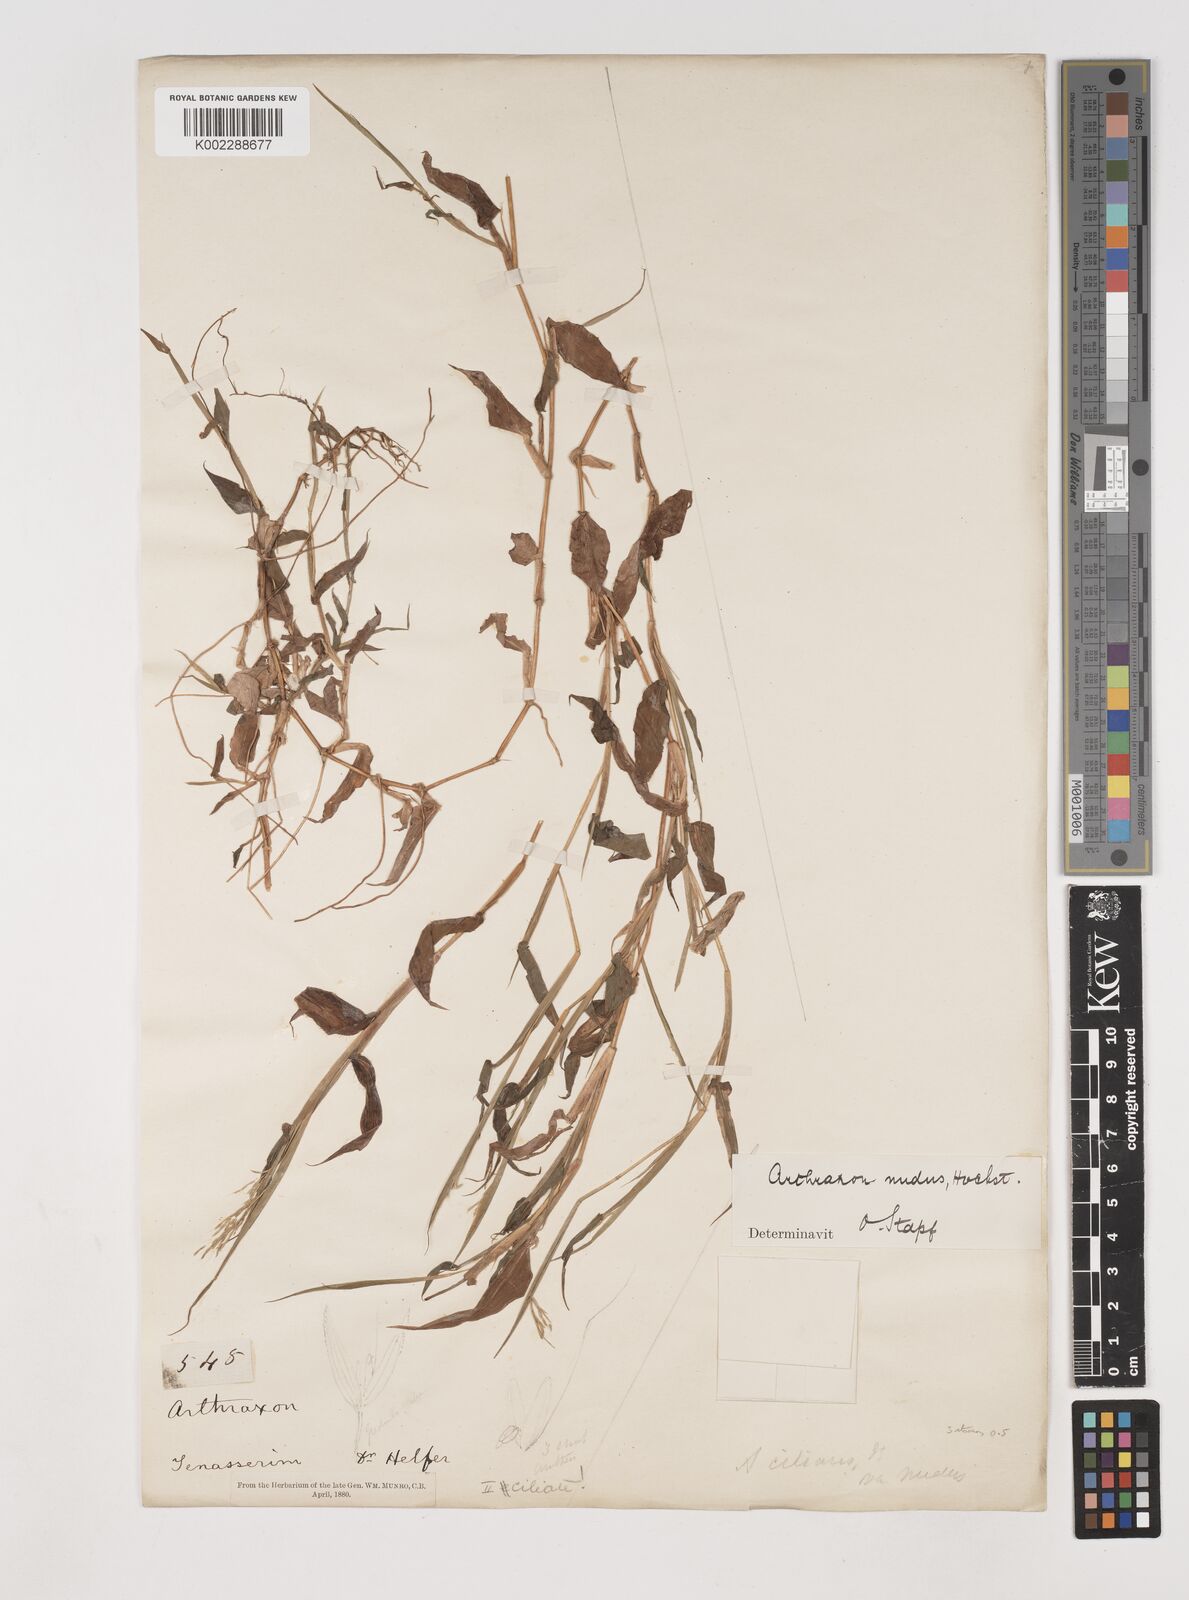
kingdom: Plantae
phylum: Tracheophyta
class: Liliopsida
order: Poales
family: Poaceae
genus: Arthraxon
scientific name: Arthraxon nudus
